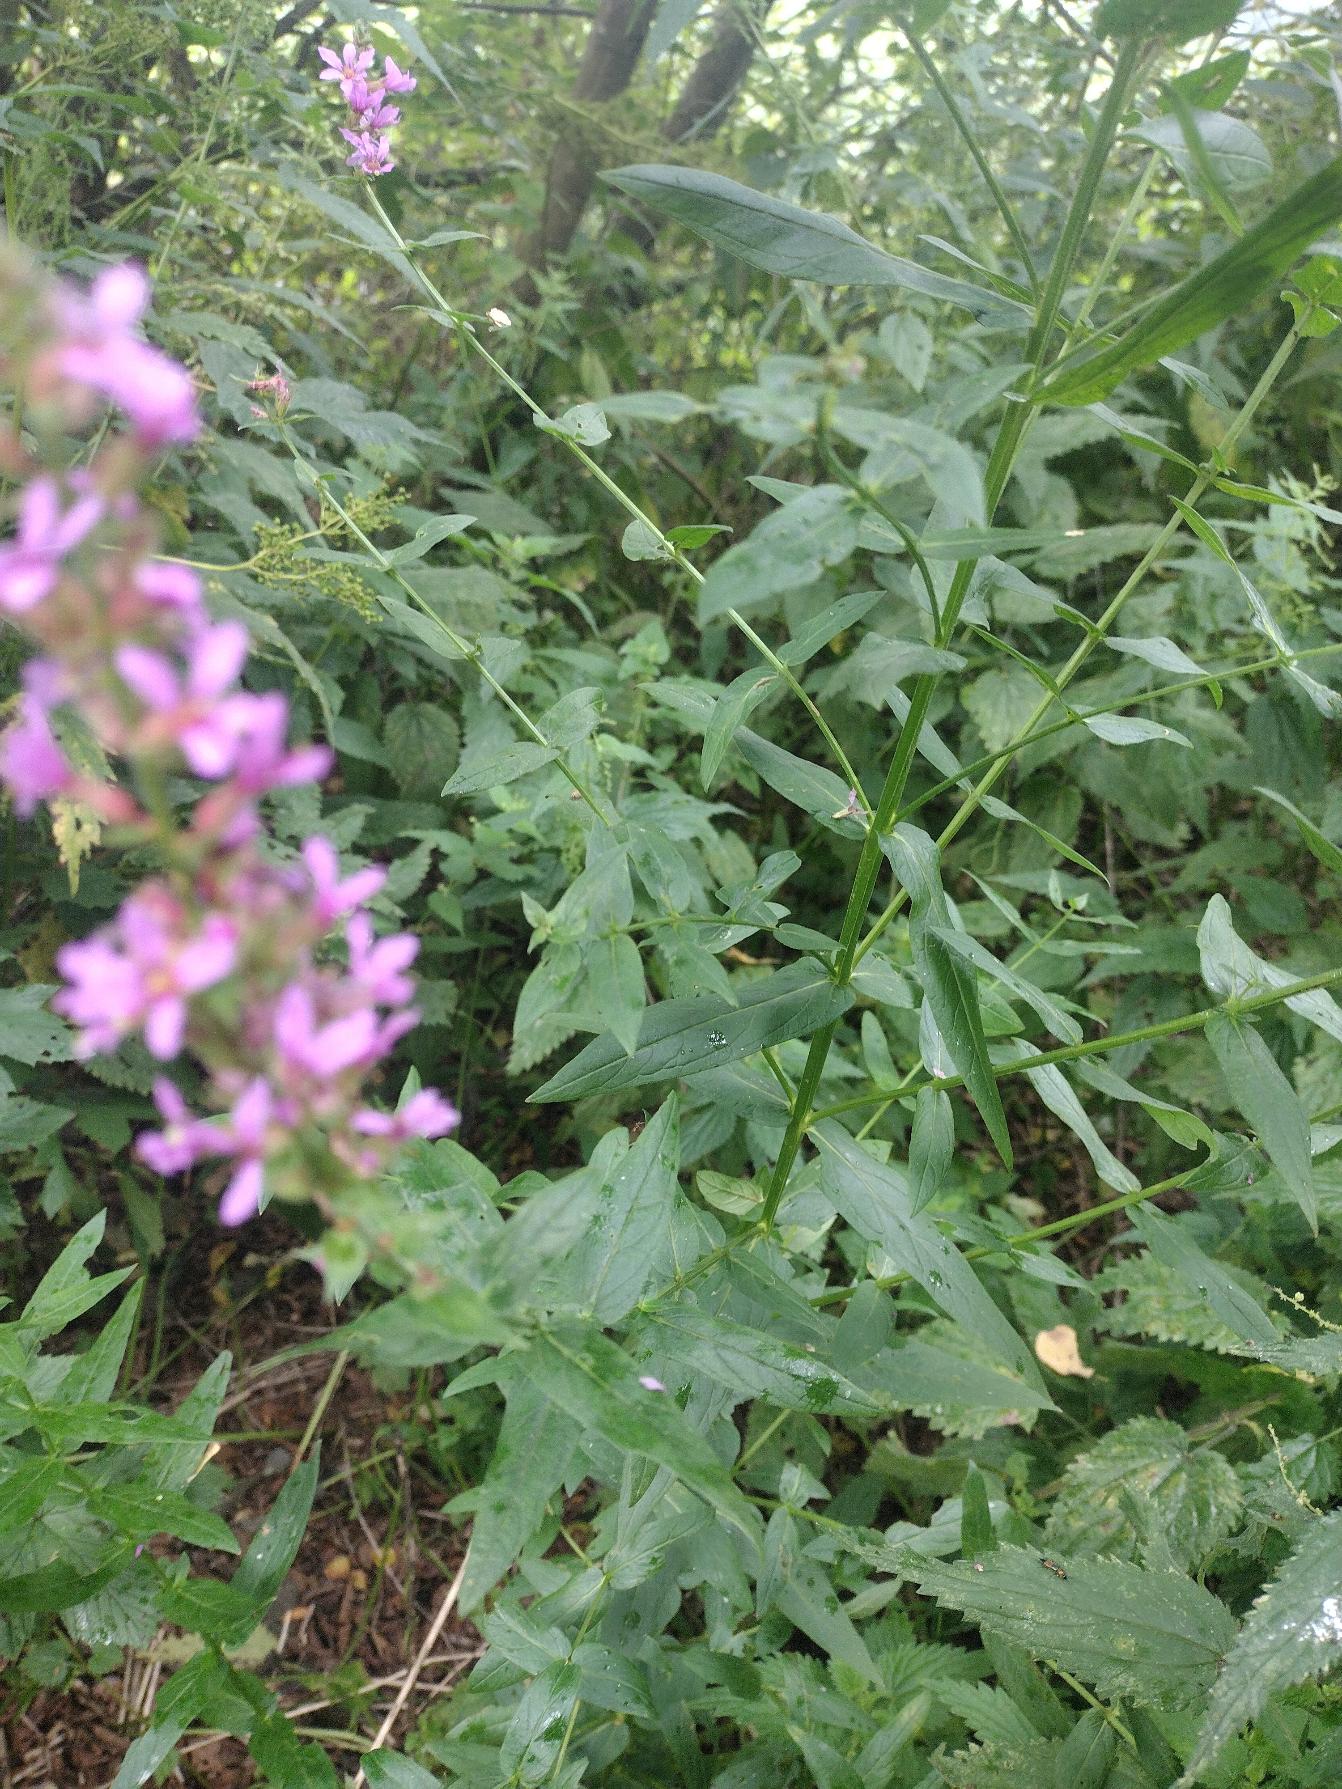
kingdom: Plantae
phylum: Tracheophyta
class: Magnoliopsida
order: Myrtales
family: Lythraceae
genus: Lythrum
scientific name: Lythrum salicaria
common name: Kattehale
